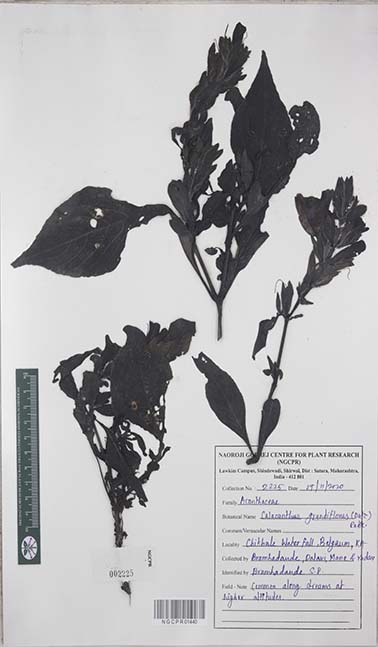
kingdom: Plantae
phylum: Tracheophyta
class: Magnoliopsida
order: Lamiales
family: Acanthaceae
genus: Calacanthus
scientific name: Calacanthus grandiflorus
